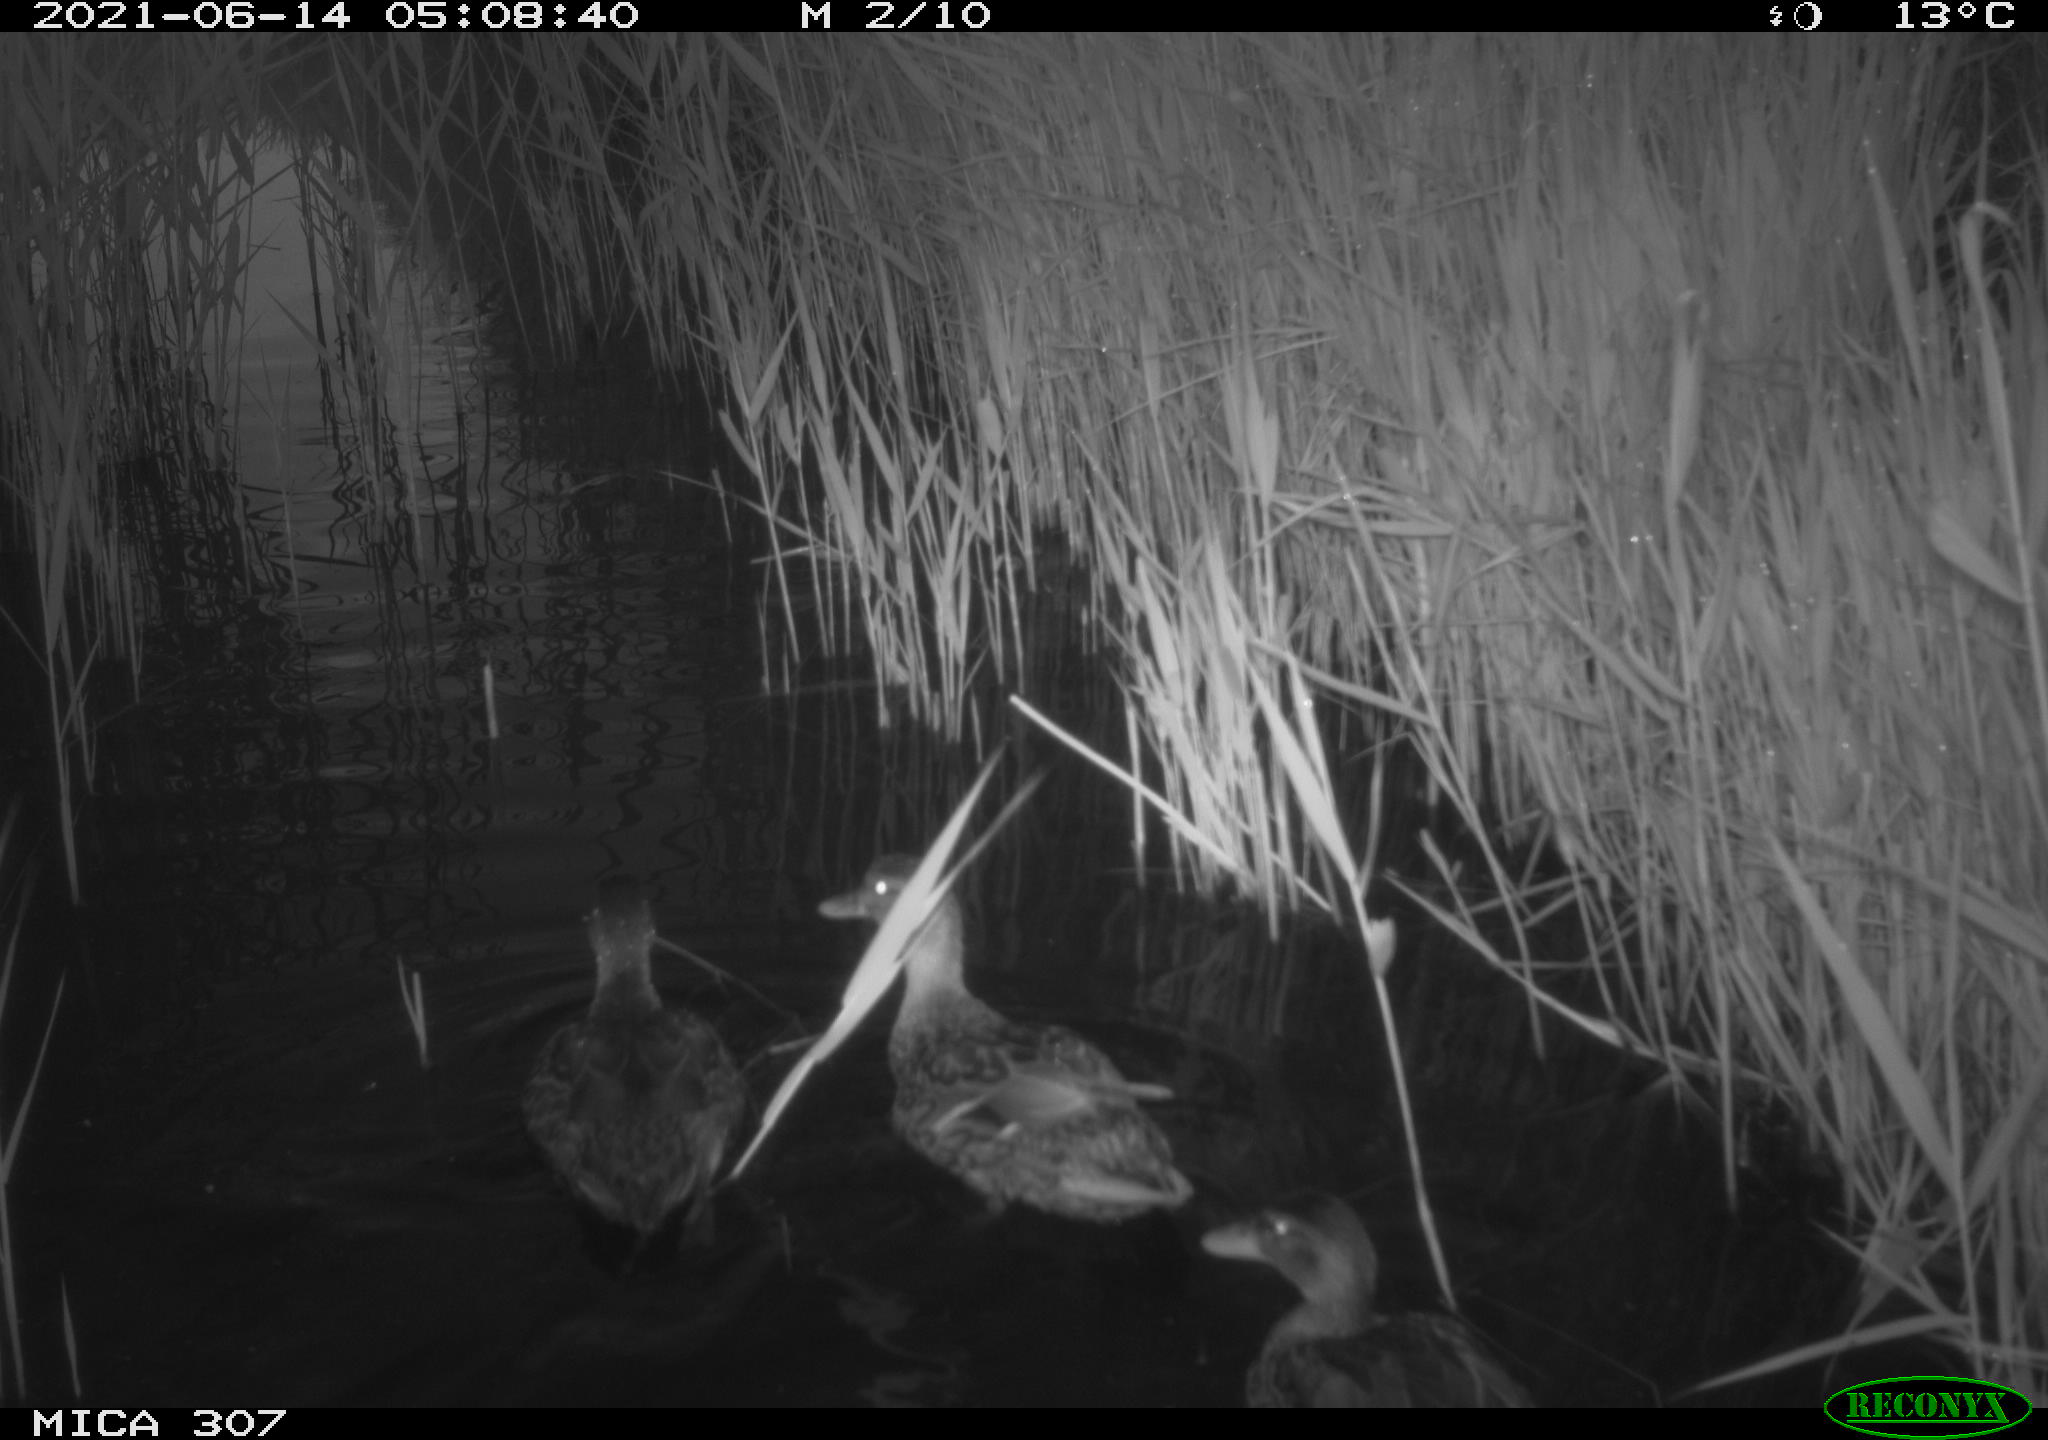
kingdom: Animalia
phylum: Chordata
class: Aves
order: Anseriformes
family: Anatidae
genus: Anas
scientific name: Anas platyrhynchos
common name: Mallard
